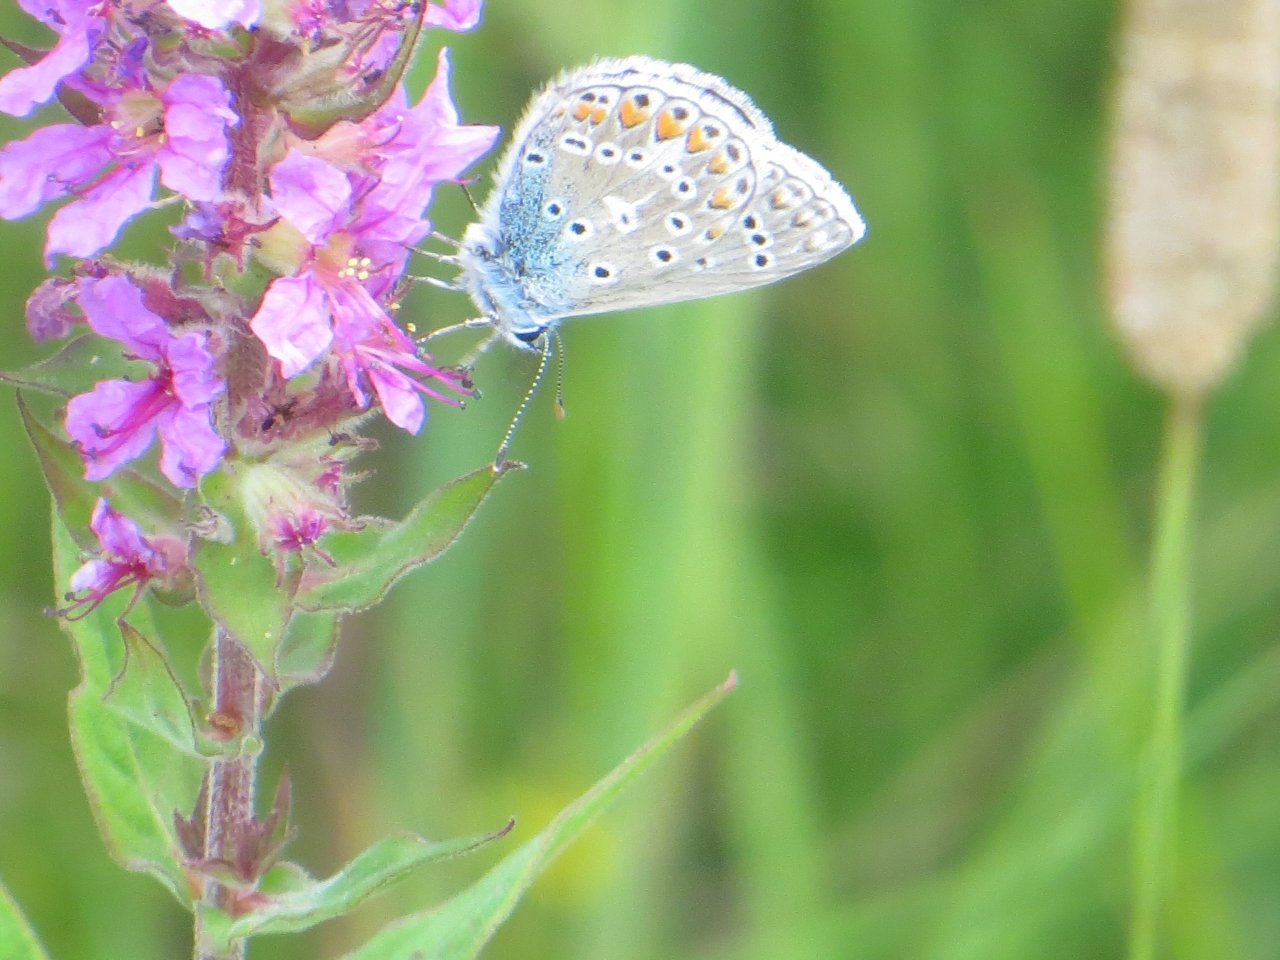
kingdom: Animalia
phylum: Arthropoda
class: Insecta
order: Lepidoptera
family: Lycaenidae
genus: Polyommatus
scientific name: Polyommatus icarus
